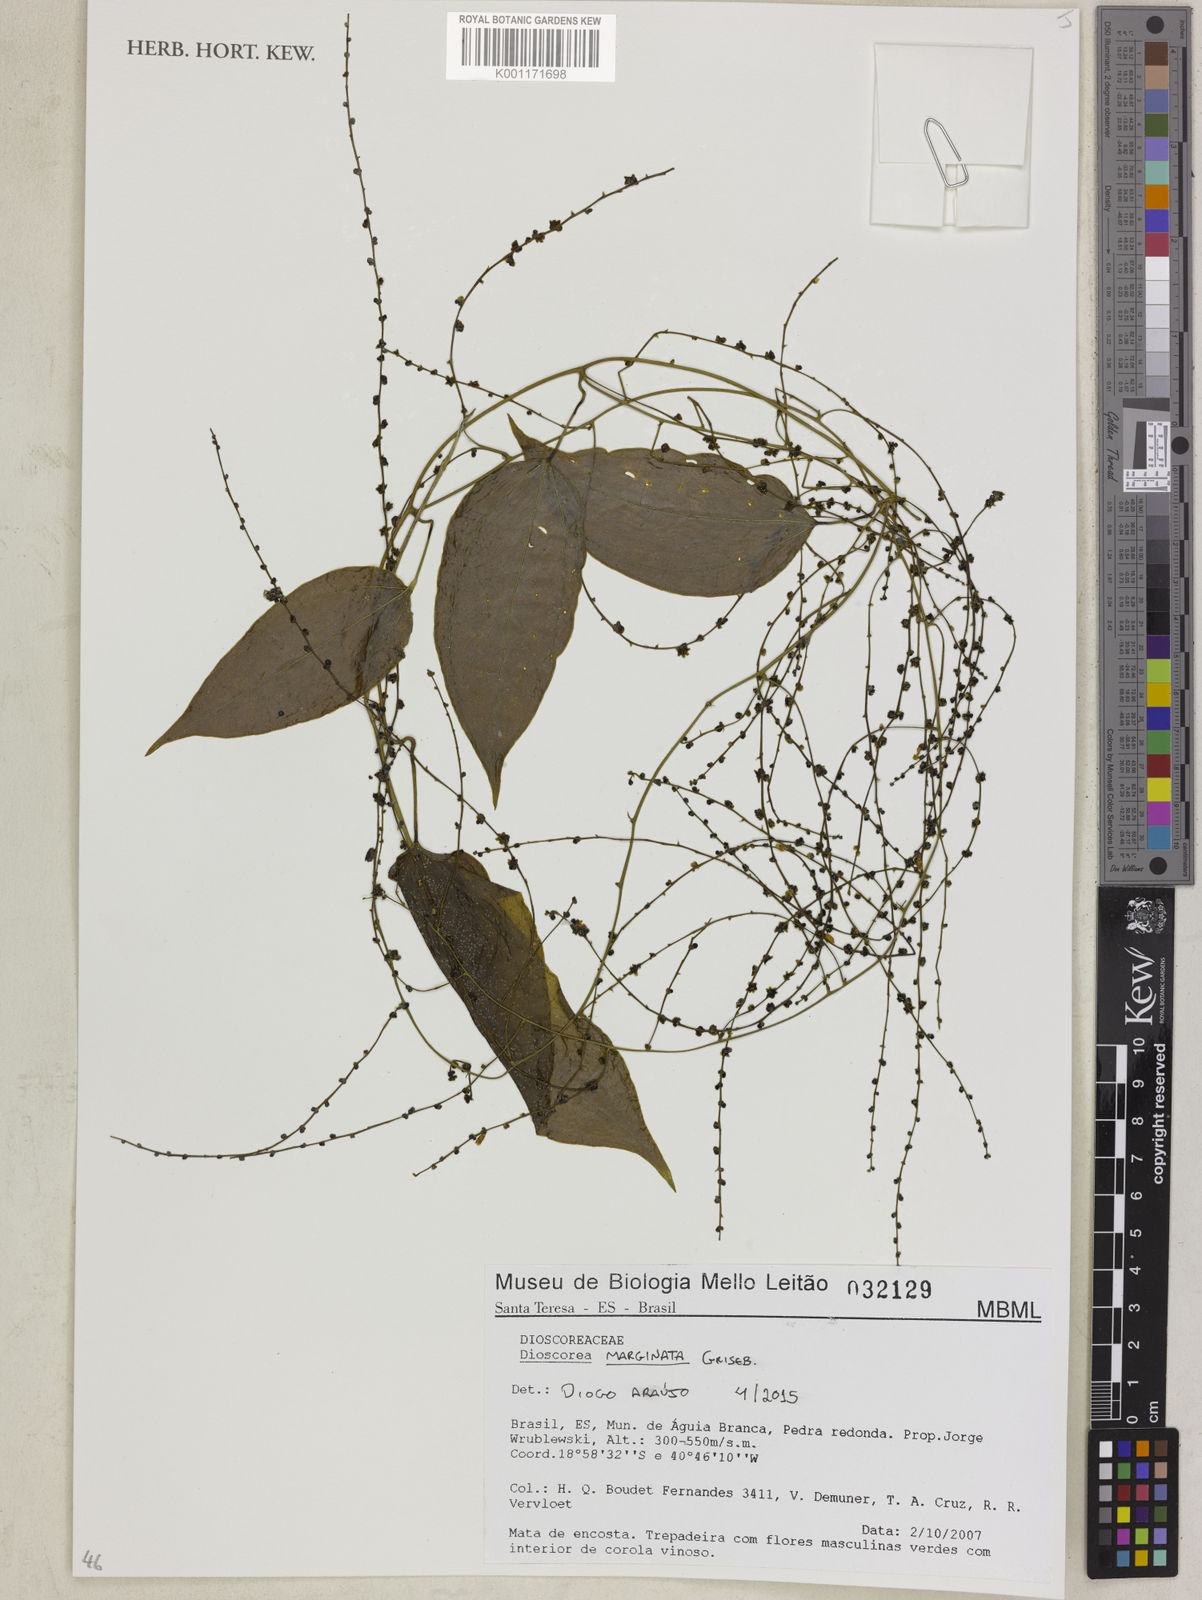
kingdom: Plantae
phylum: Tracheophyta
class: Liliopsida
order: Dioscoreales
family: Dioscoreaceae
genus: Dioscorea
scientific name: Dioscorea marginata
